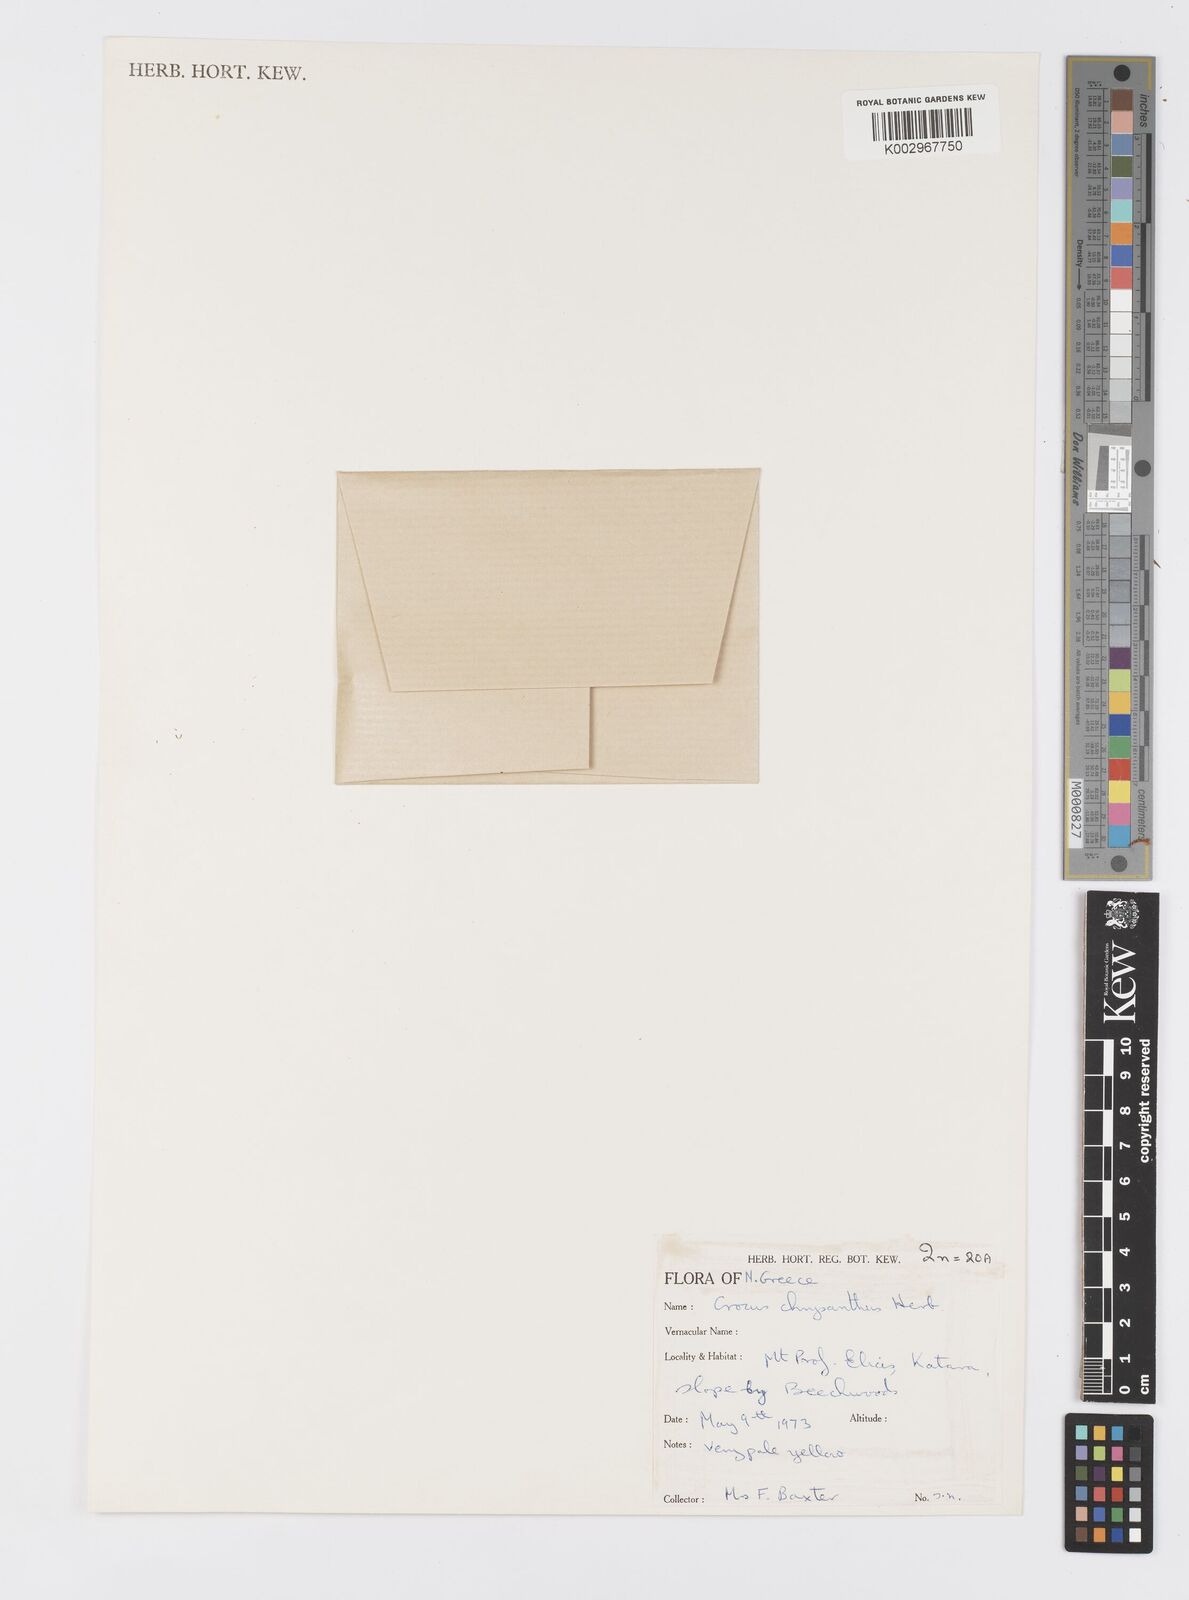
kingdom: Plantae
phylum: Tracheophyta
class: Liliopsida
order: Asparagales
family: Iridaceae
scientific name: Iridaceae
